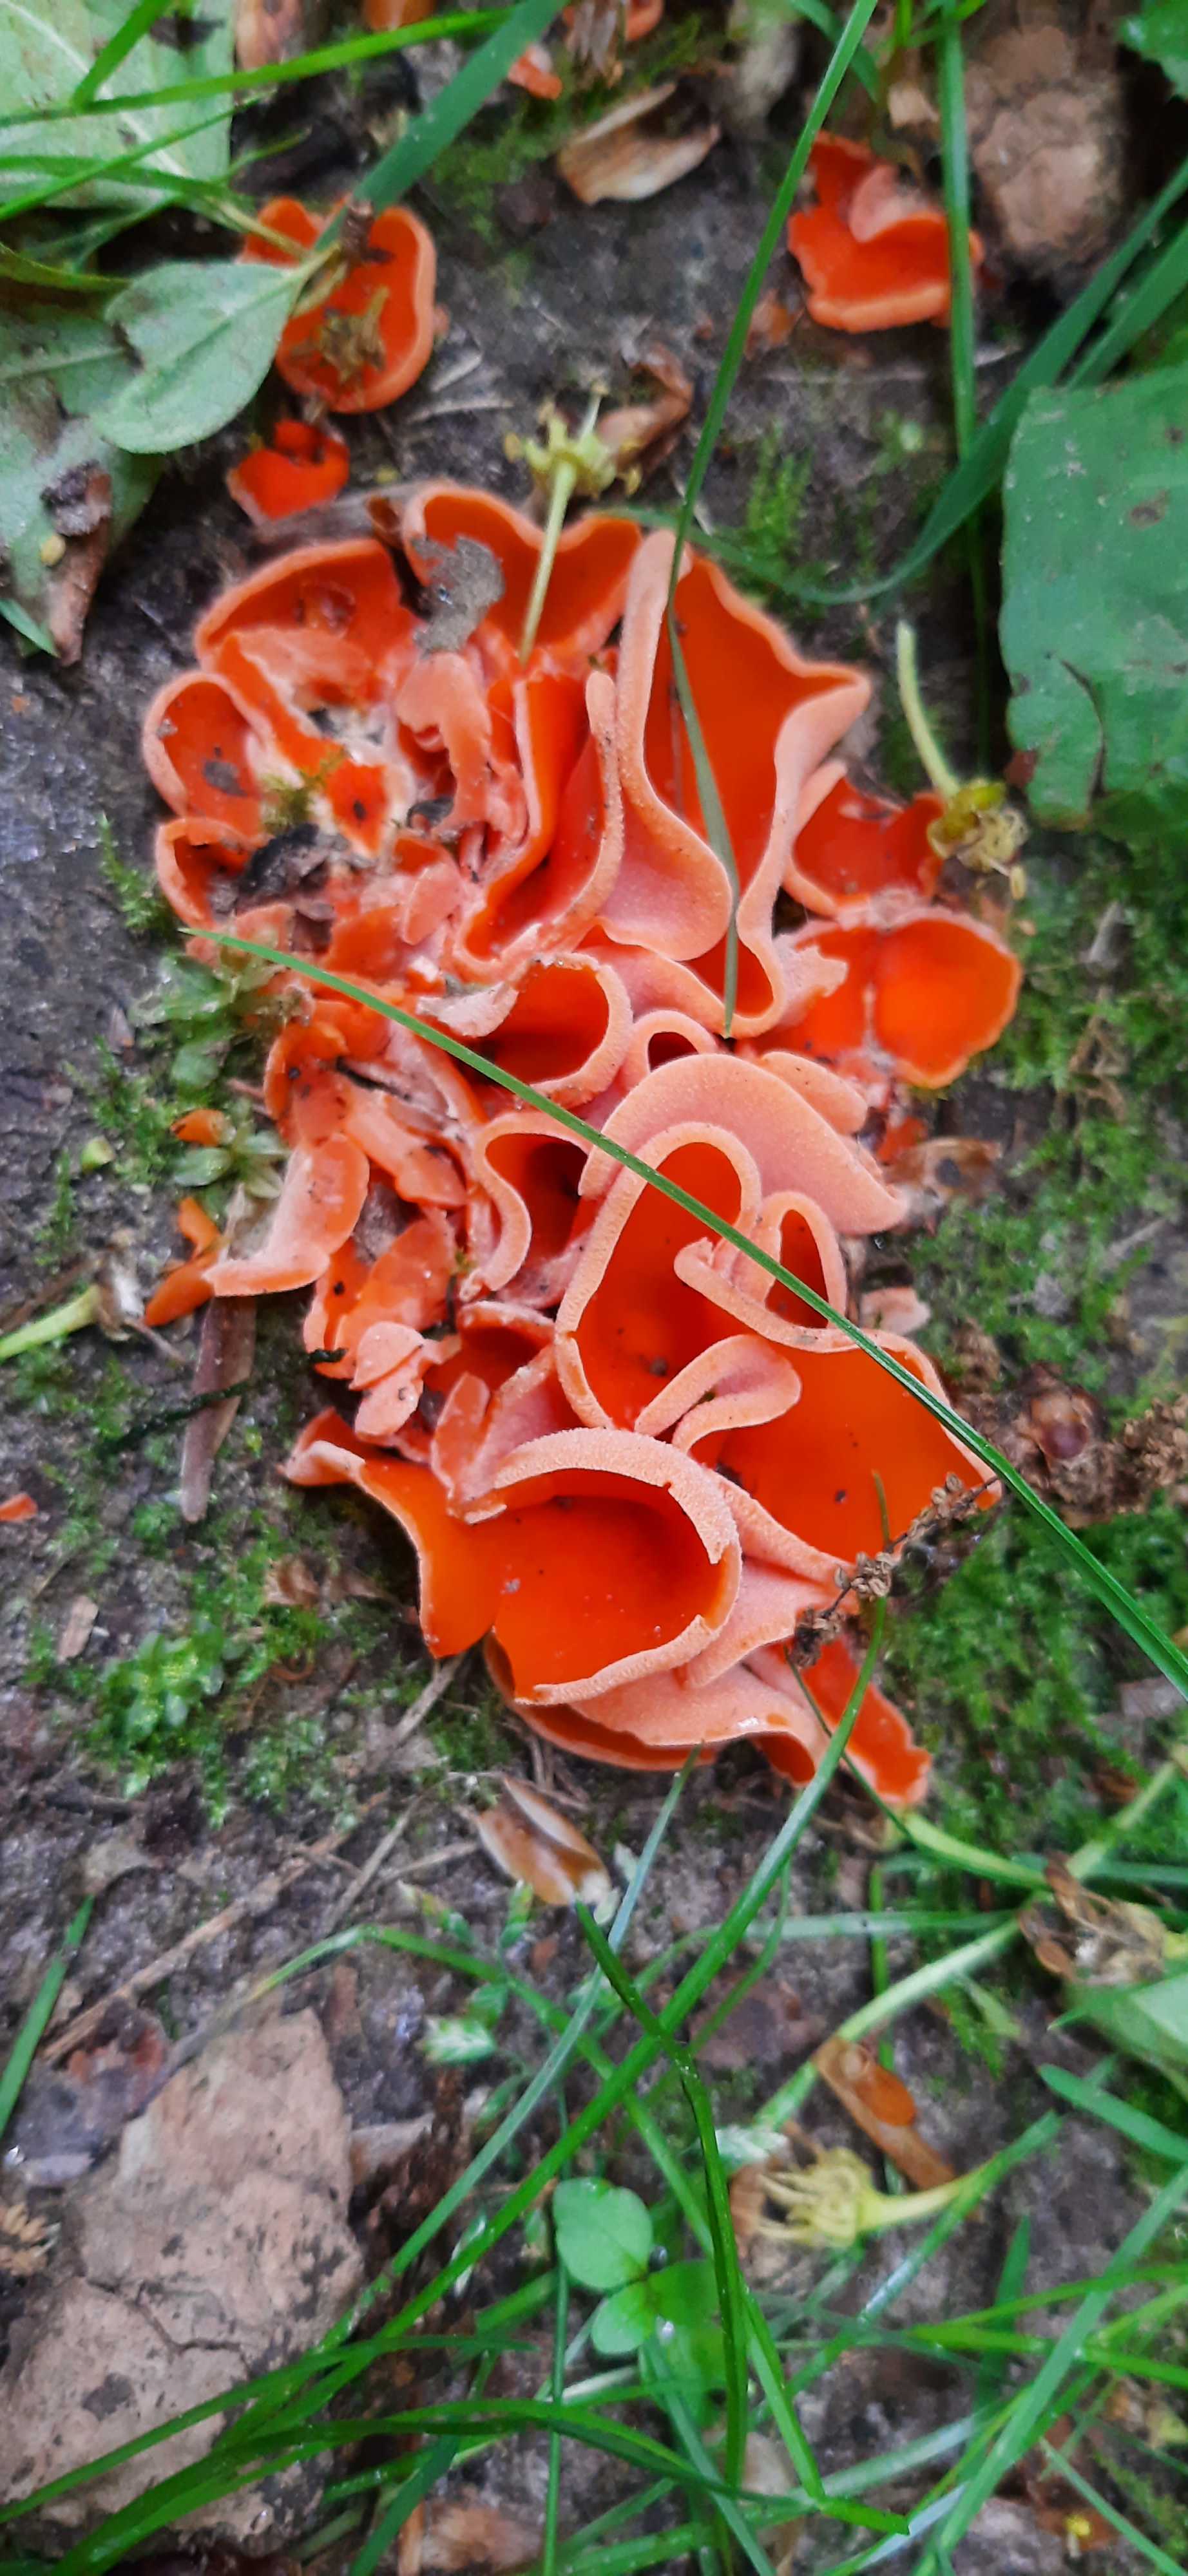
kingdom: Fungi
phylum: Ascomycota
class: Pezizomycetes
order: Pezizales
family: Pyronemataceae
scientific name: Pyronemataceae
